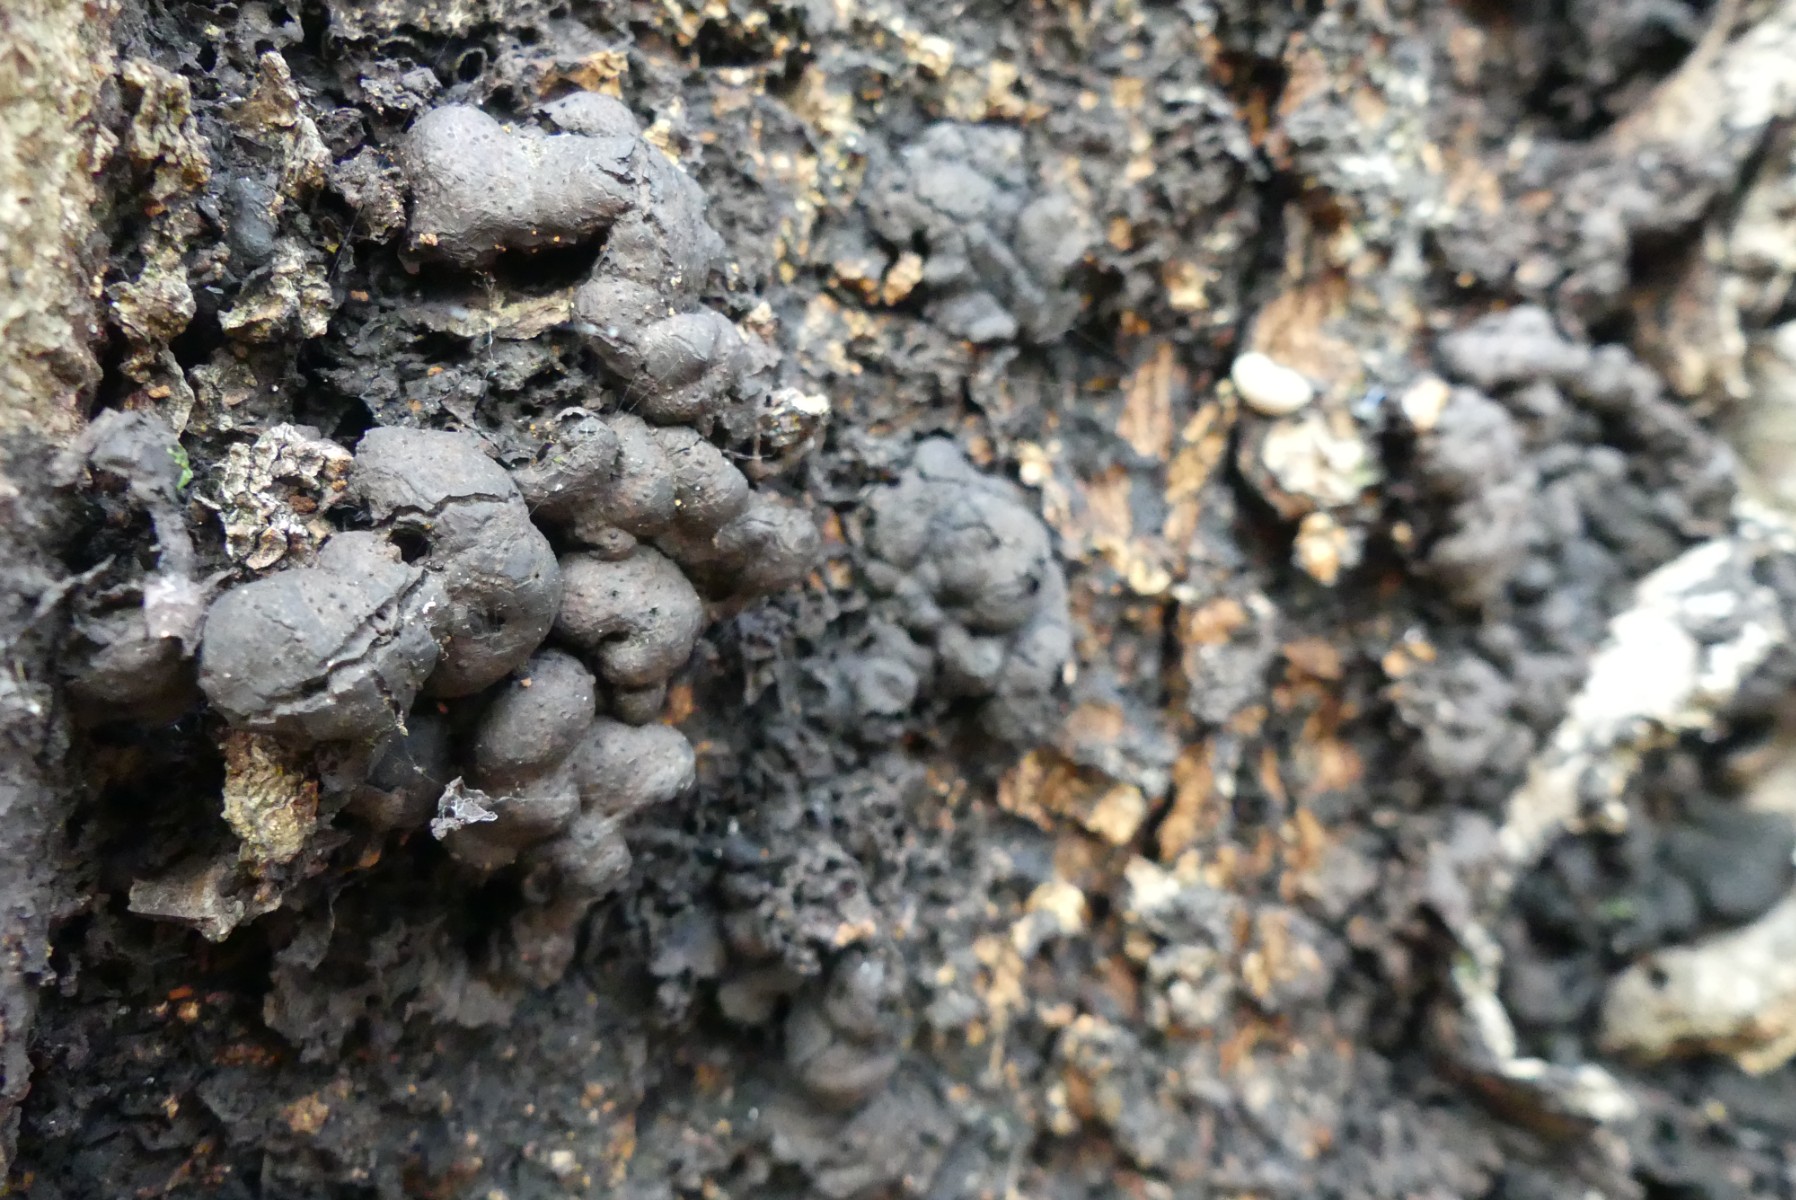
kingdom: Fungi
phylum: Ascomycota
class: Sordariomycetes
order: Xylariales
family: Xylariaceae
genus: Kretzschmaria
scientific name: Kretzschmaria deusta
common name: stor kulsvamp
